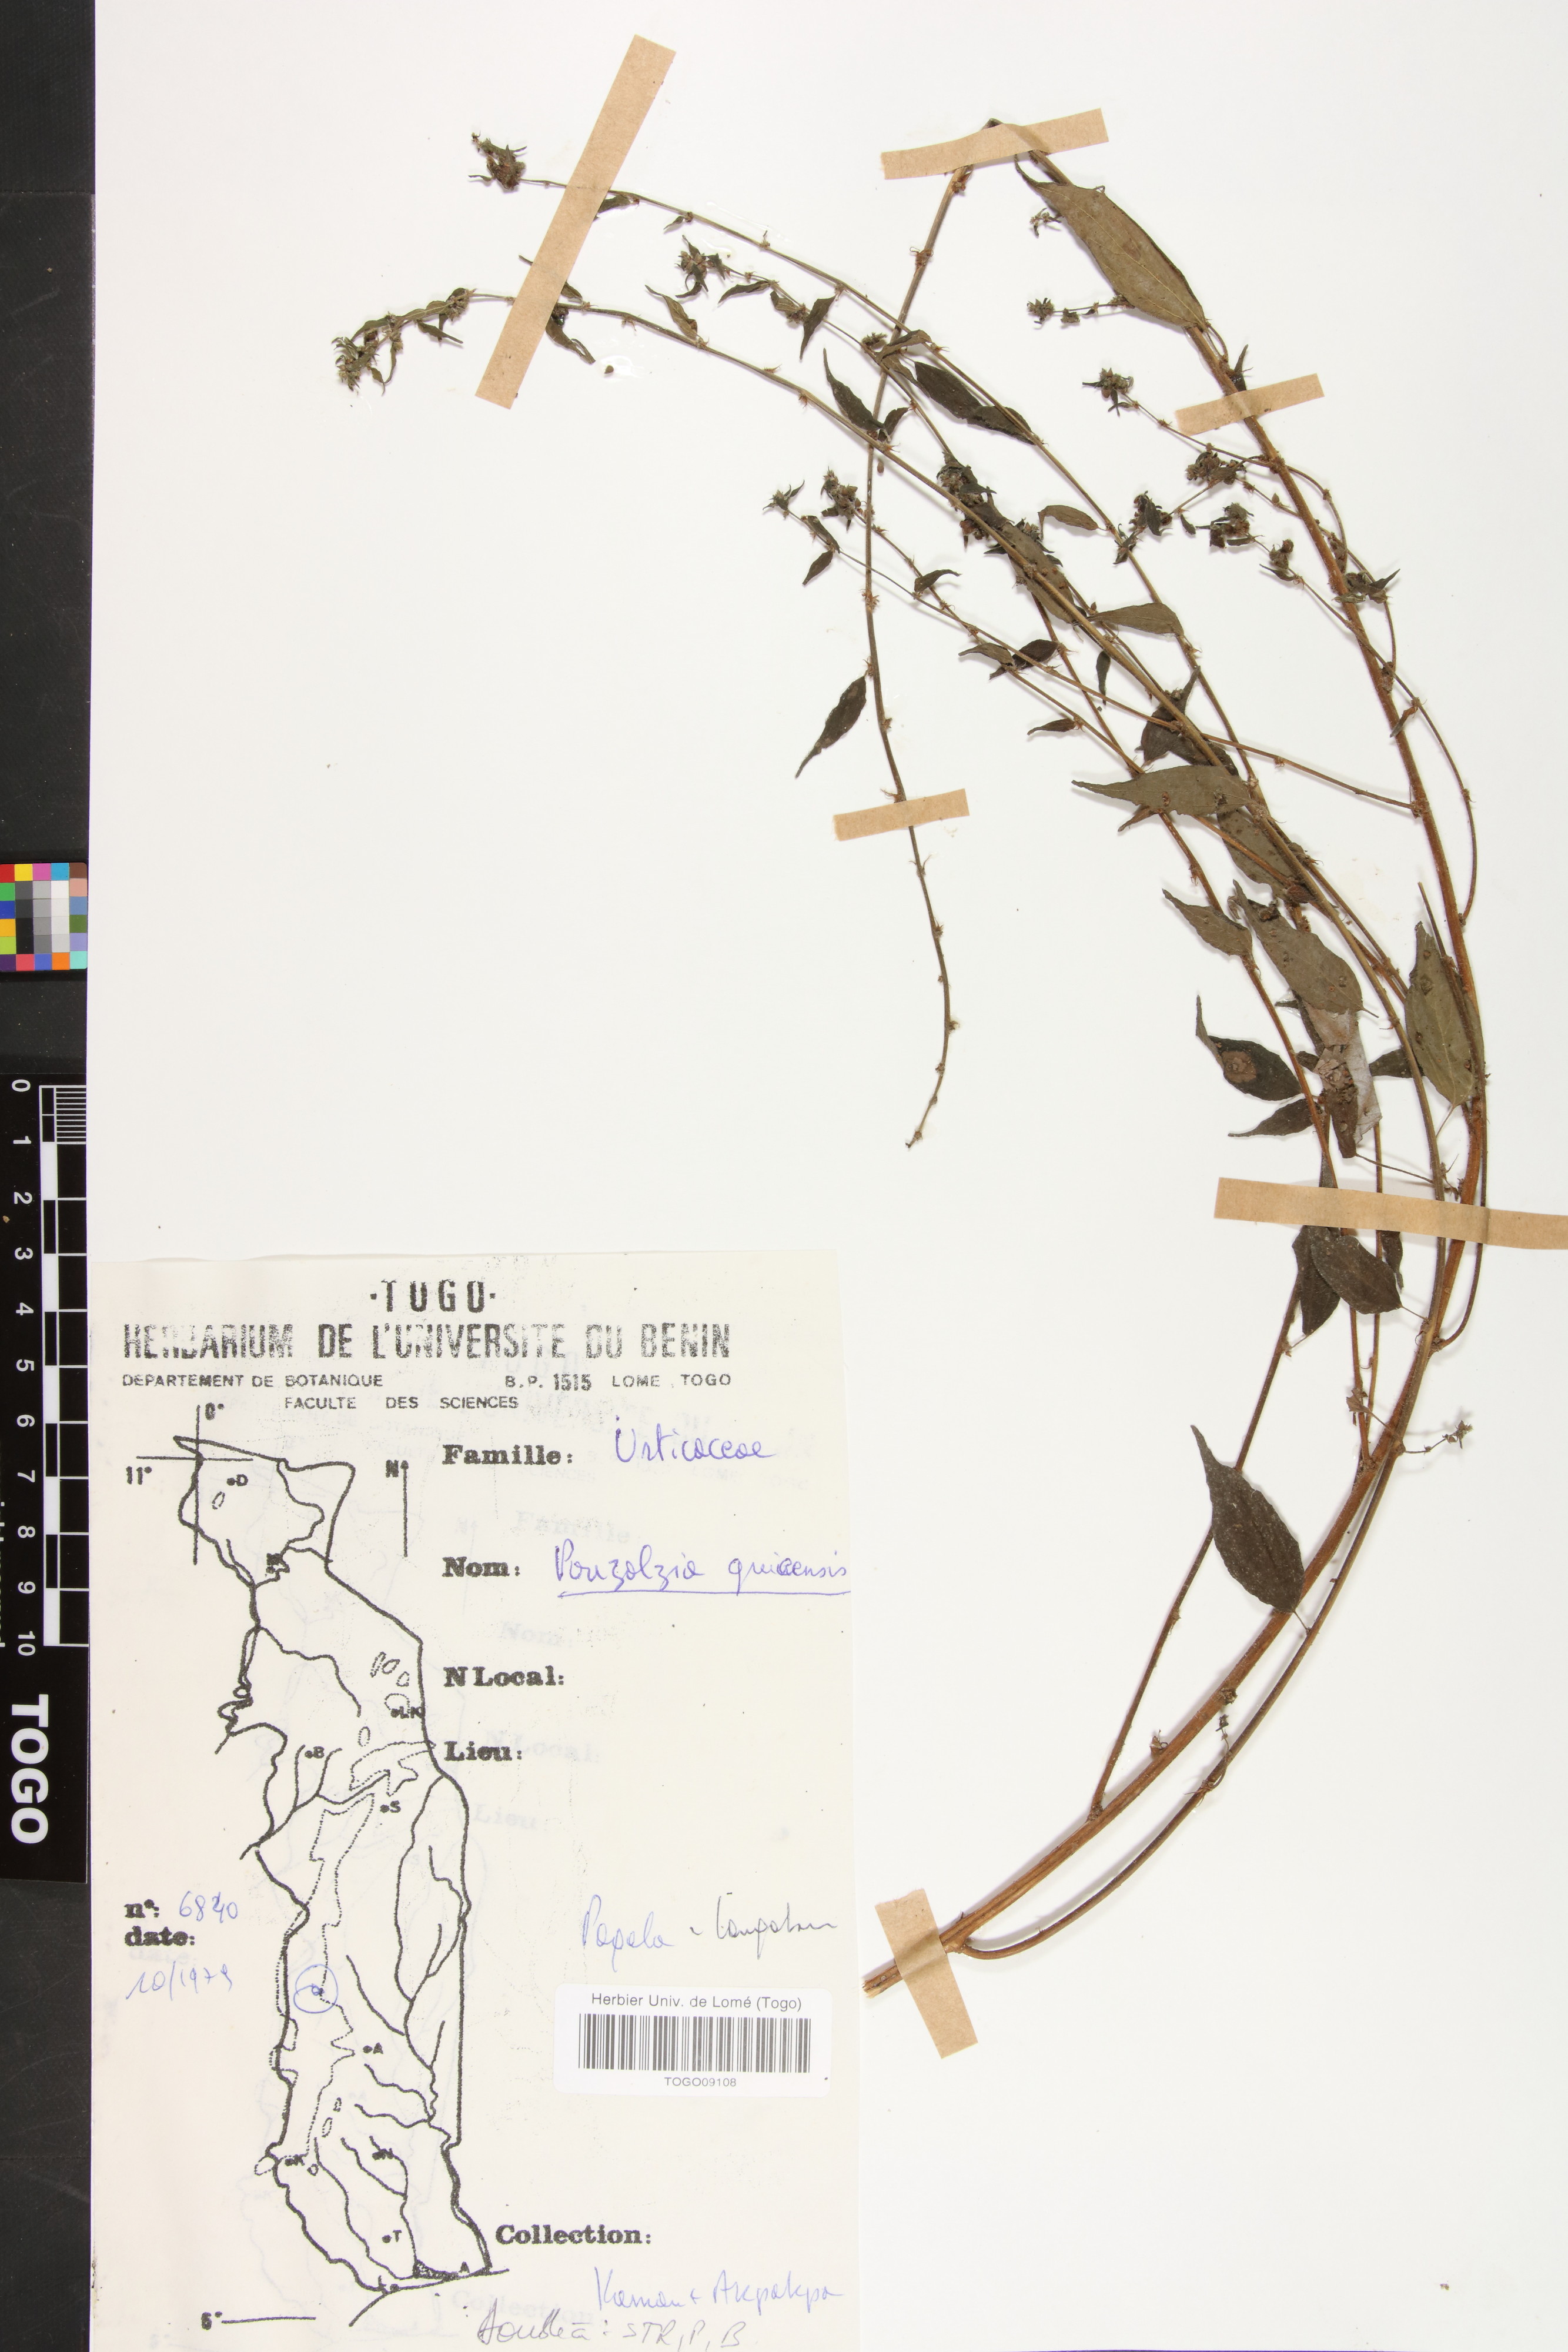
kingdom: Plantae
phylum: Tracheophyta
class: Magnoliopsida
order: Rosales
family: Urticaceae
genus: Pouzolzia
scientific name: Pouzolzia guineensis
